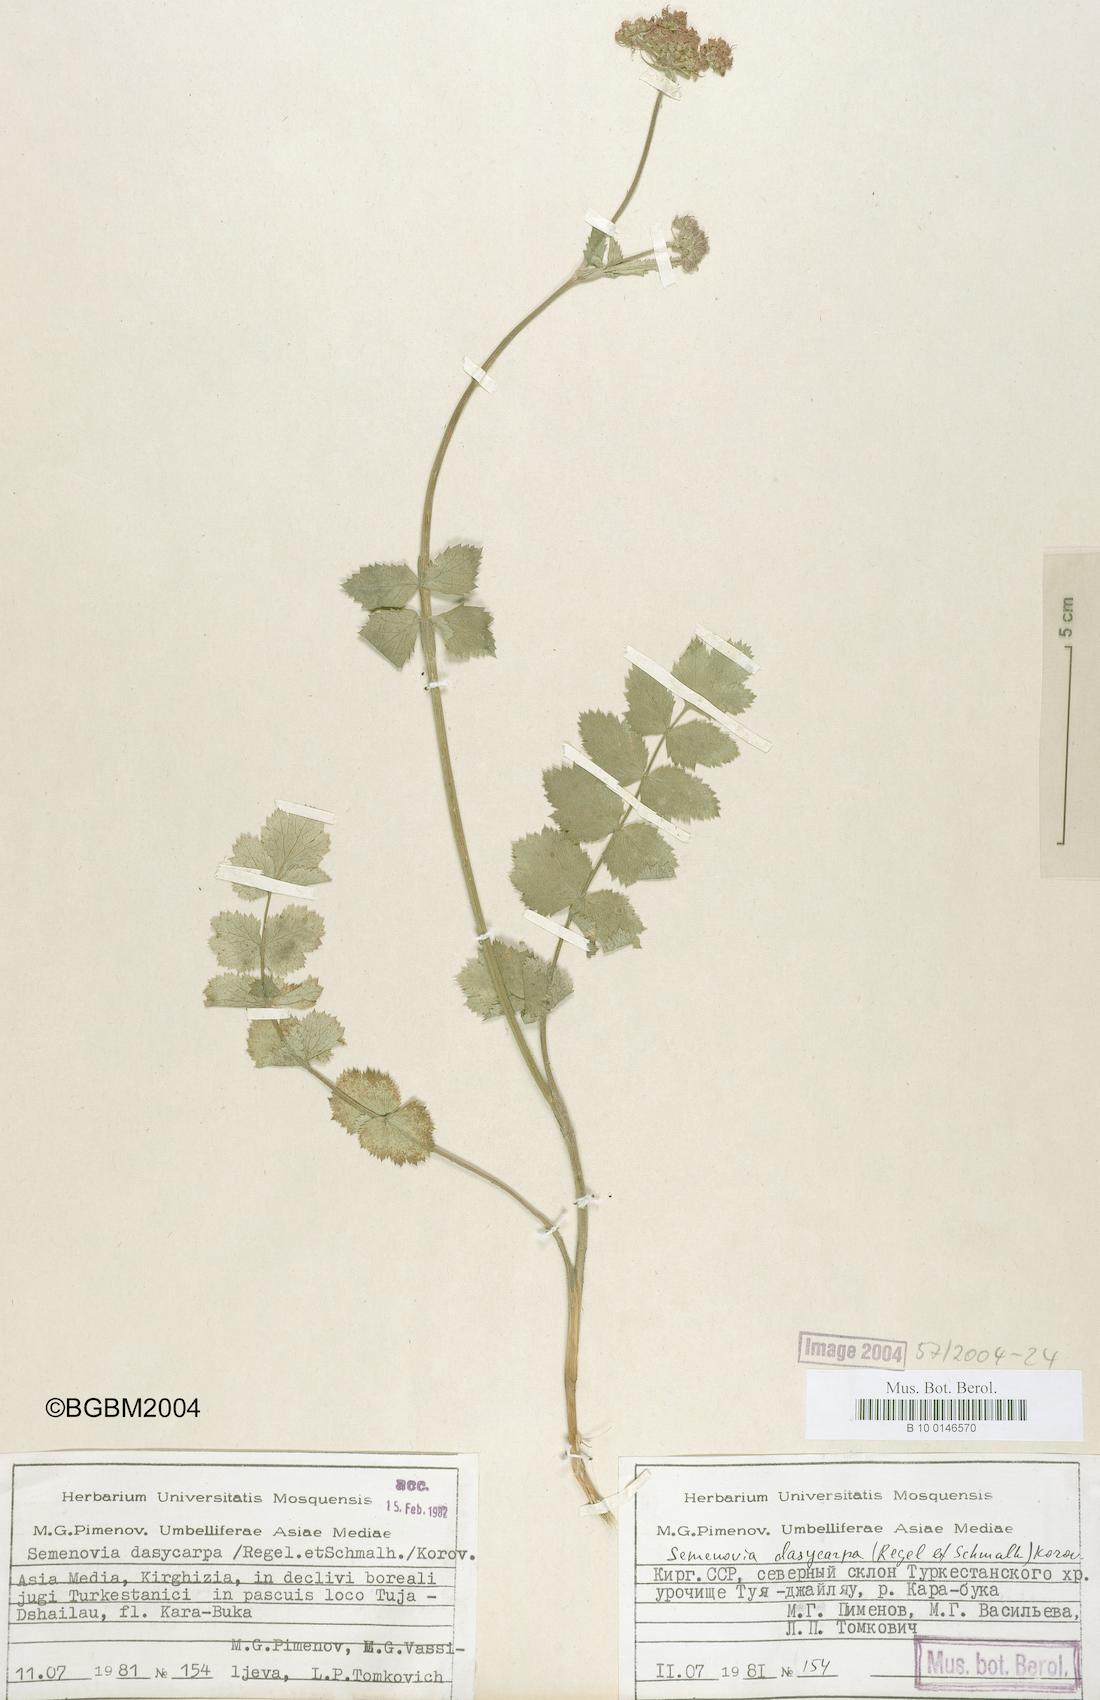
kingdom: Plantae
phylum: Tracheophyta
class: Magnoliopsida
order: Apiales
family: Apiaceae
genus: Semenovia
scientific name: Semenovia dasycarpa
